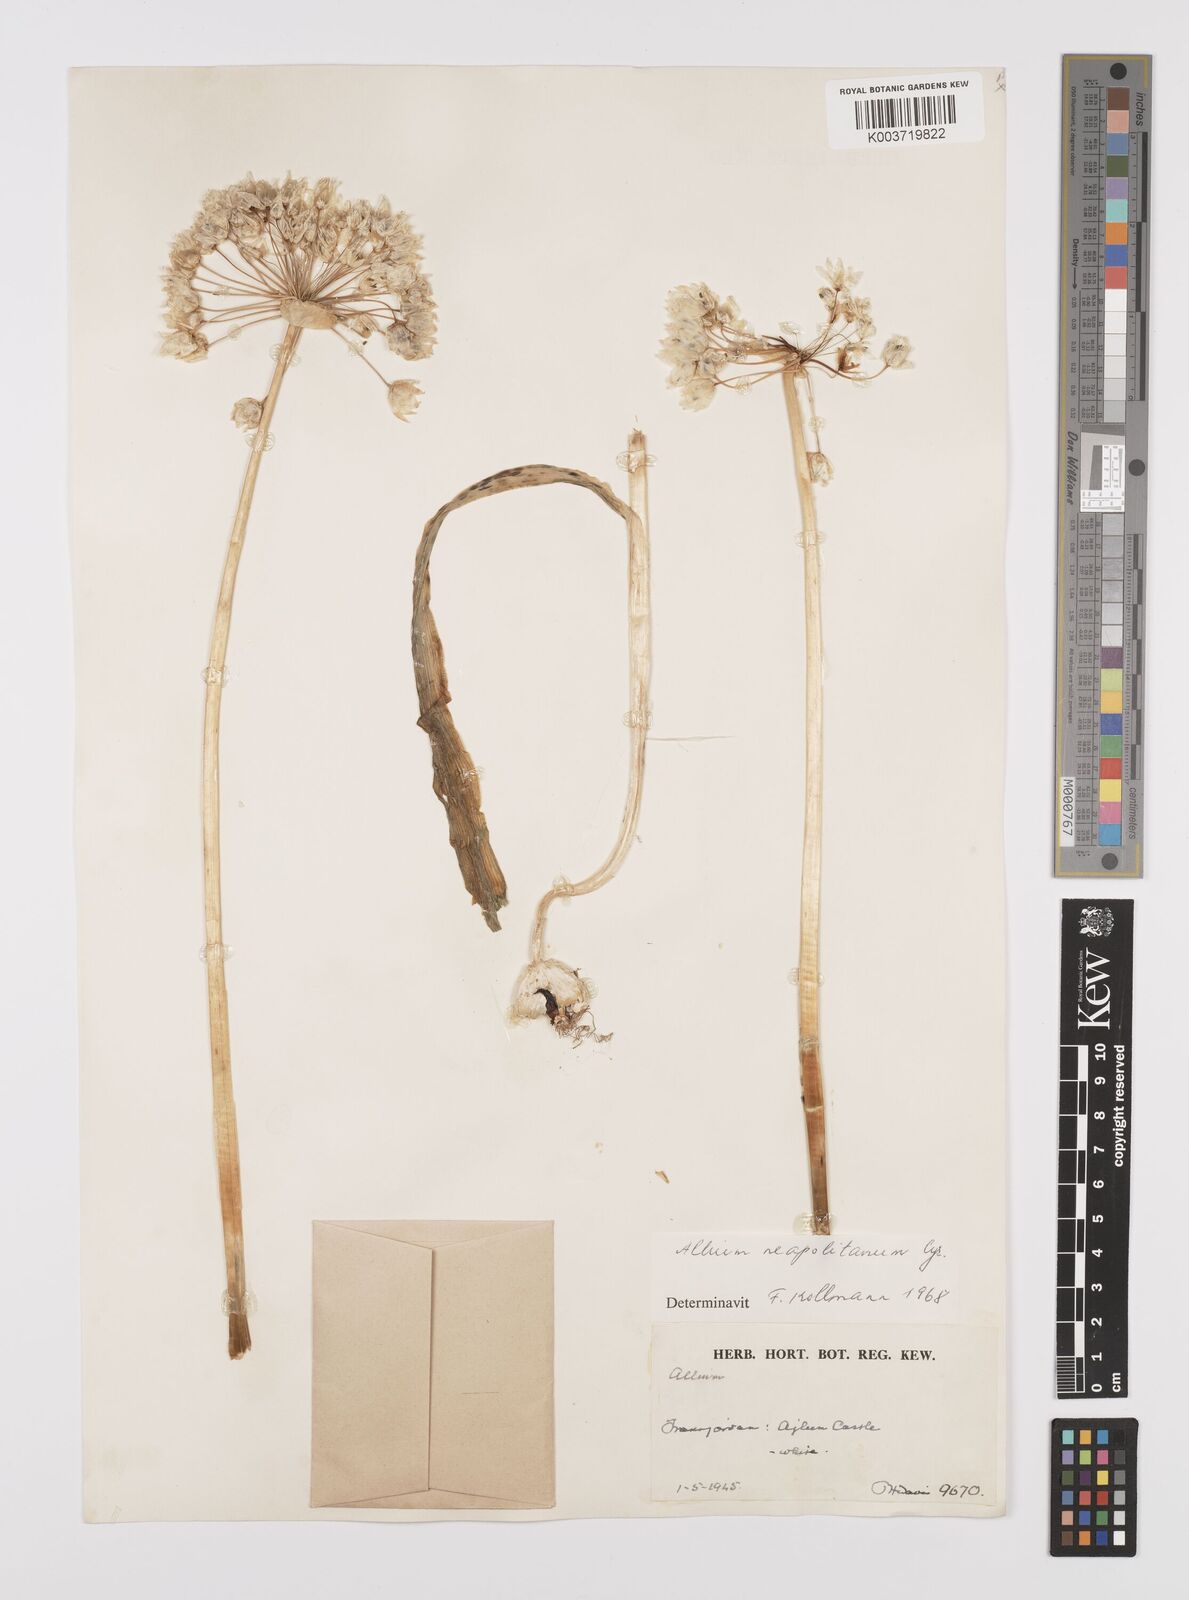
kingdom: Plantae
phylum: Tracheophyta
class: Liliopsida
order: Asparagales
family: Amaryllidaceae
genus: Allium
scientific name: Allium neapolitanum
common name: Neapolitan garlic
